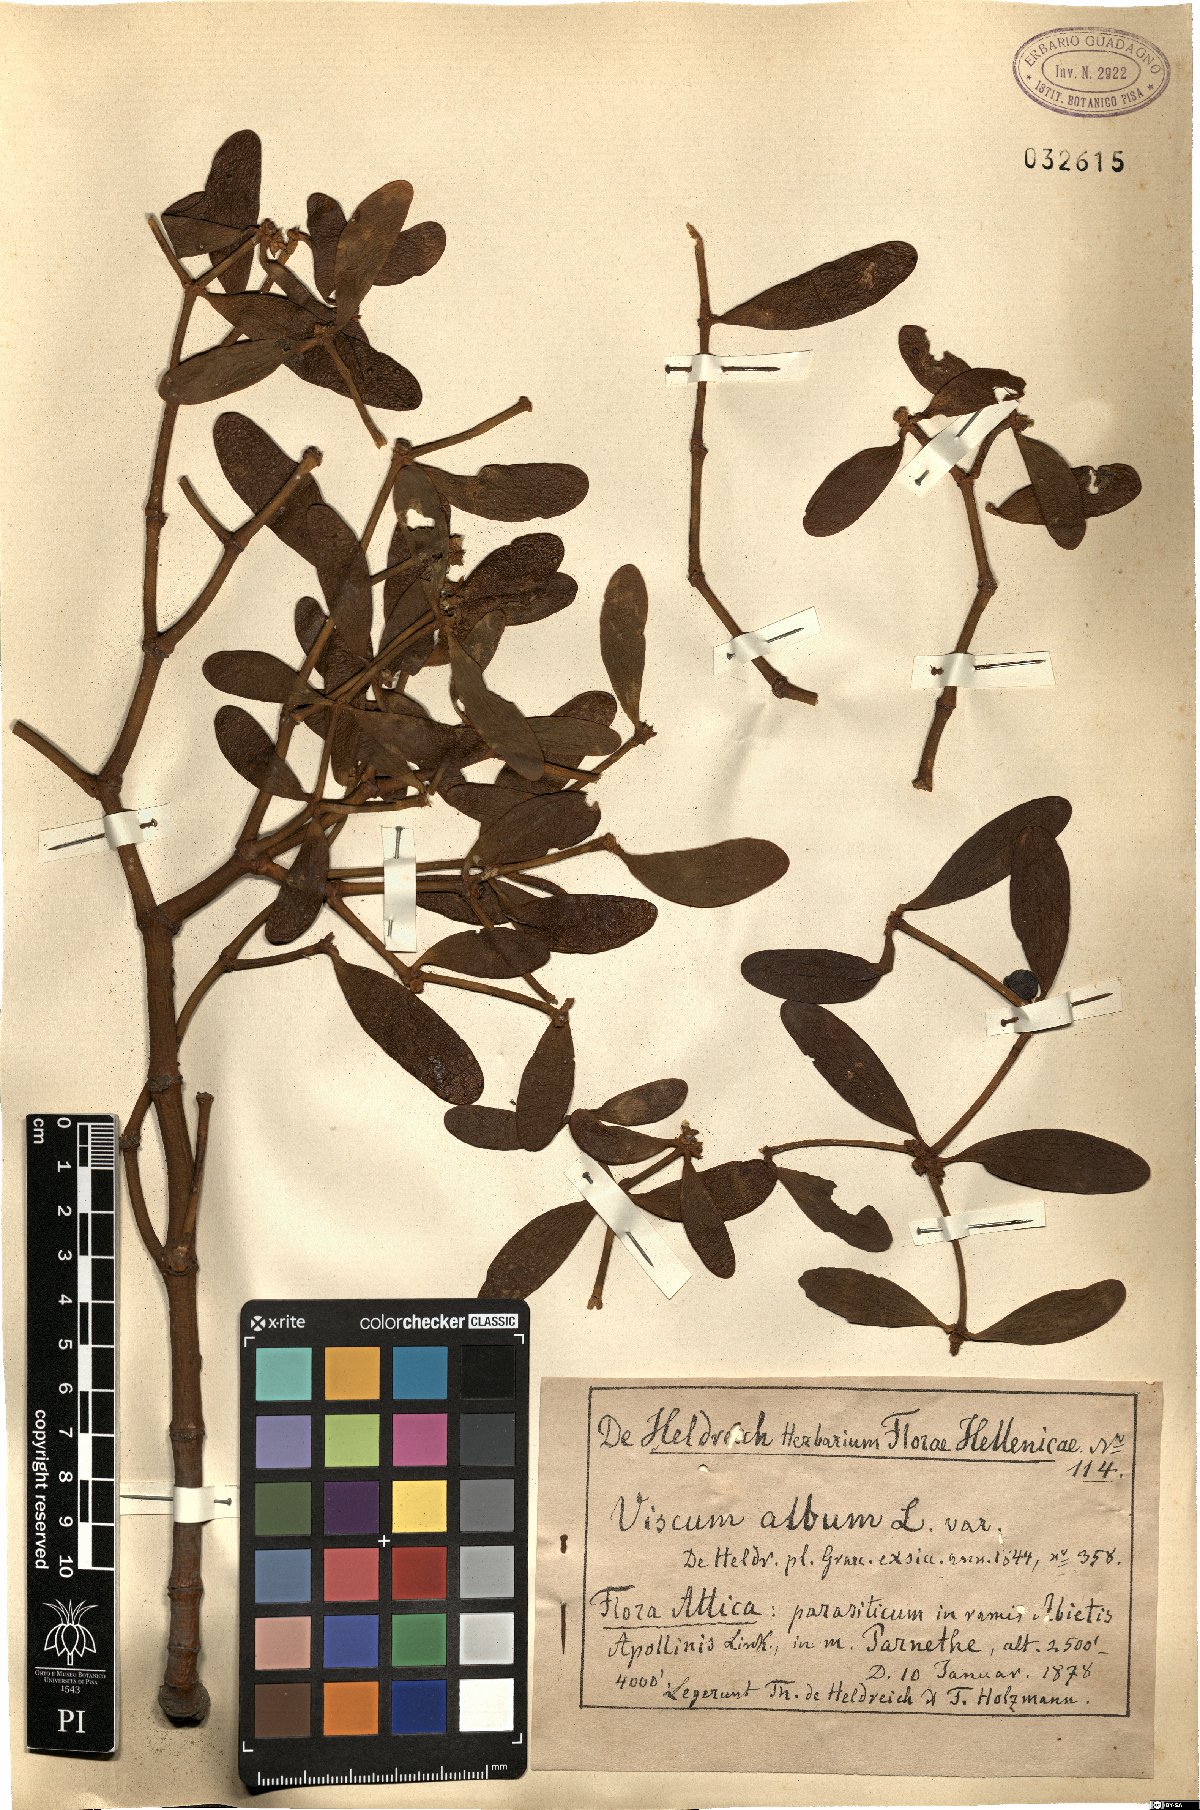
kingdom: Plantae
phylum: Tracheophyta
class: Magnoliopsida
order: Santalales
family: Viscaceae
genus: Viscum
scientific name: Viscum album
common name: Mistletoe
